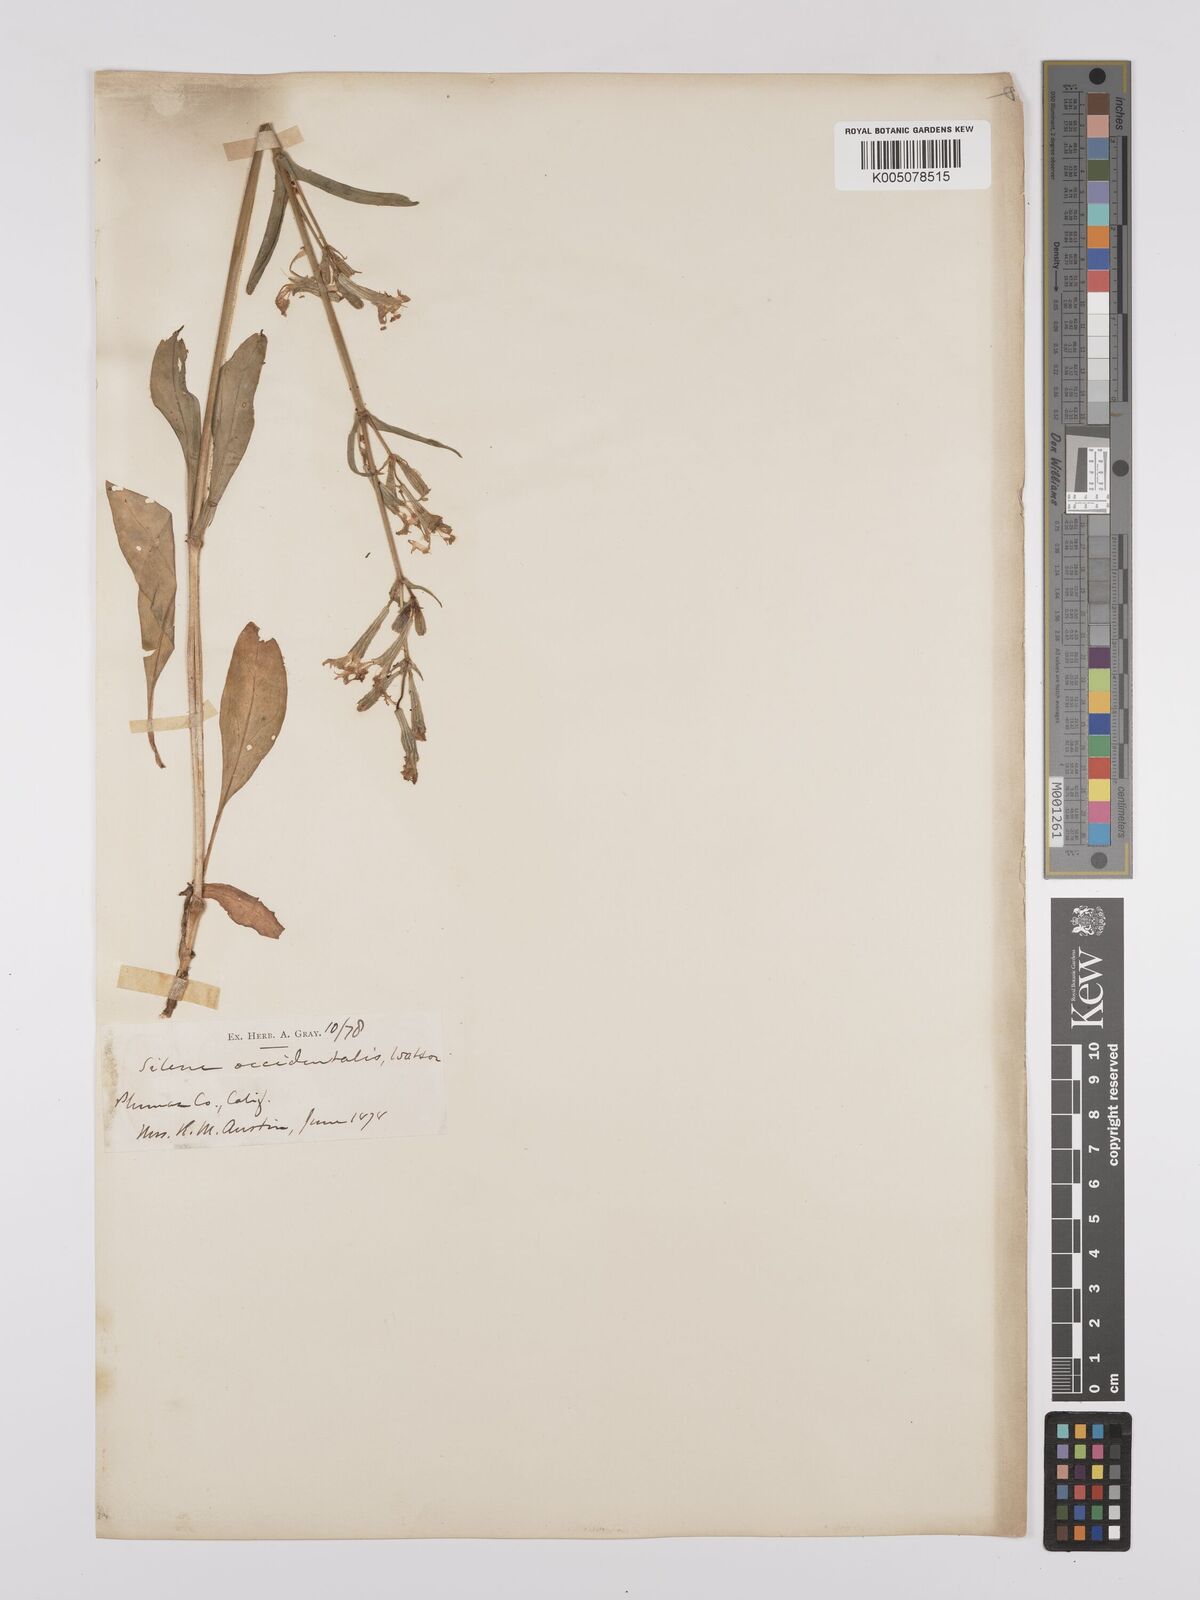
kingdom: Plantae
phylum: Tracheophyta
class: Magnoliopsida
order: Caryophyllales
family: Caryophyllaceae
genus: Silene
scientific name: Silene occidentalis
